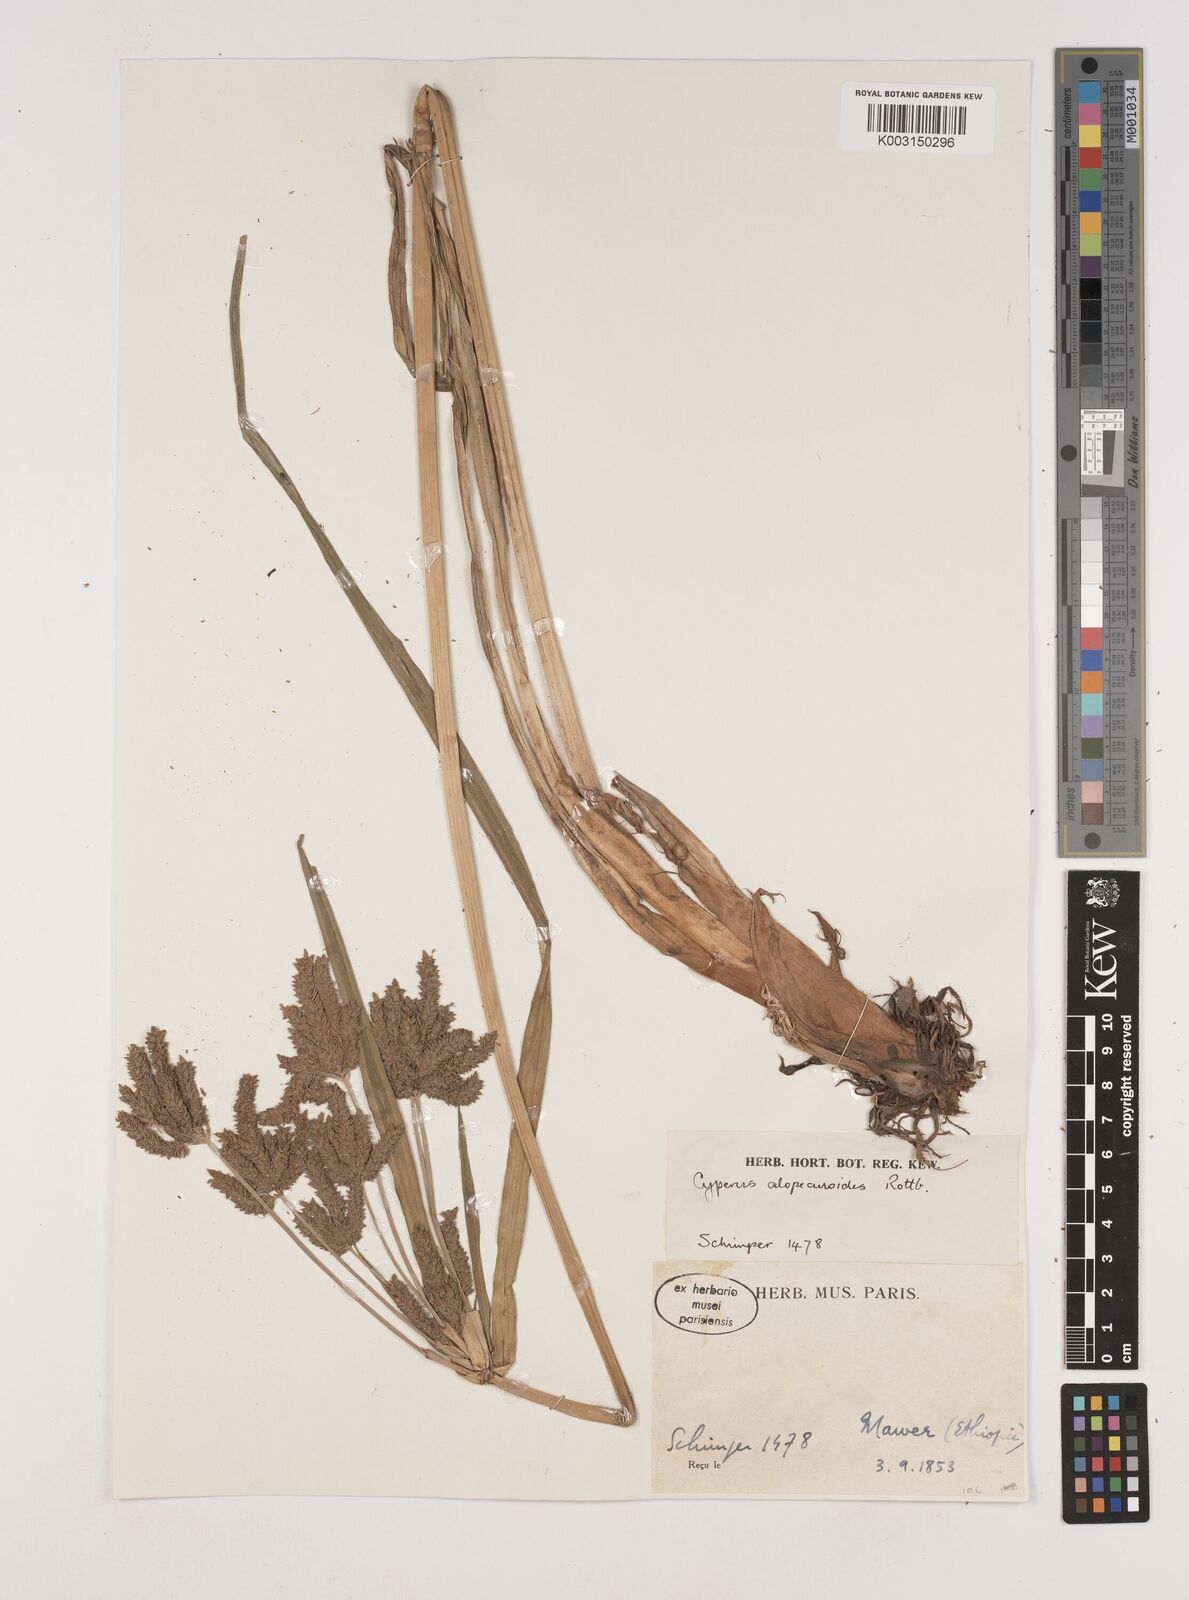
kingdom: Plantae
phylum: Tracheophyta
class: Liliopsida
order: Poales
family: Cyperaceae
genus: Cyperus
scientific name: Cyperus alopecuroides
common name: Foxtail flatsedge
